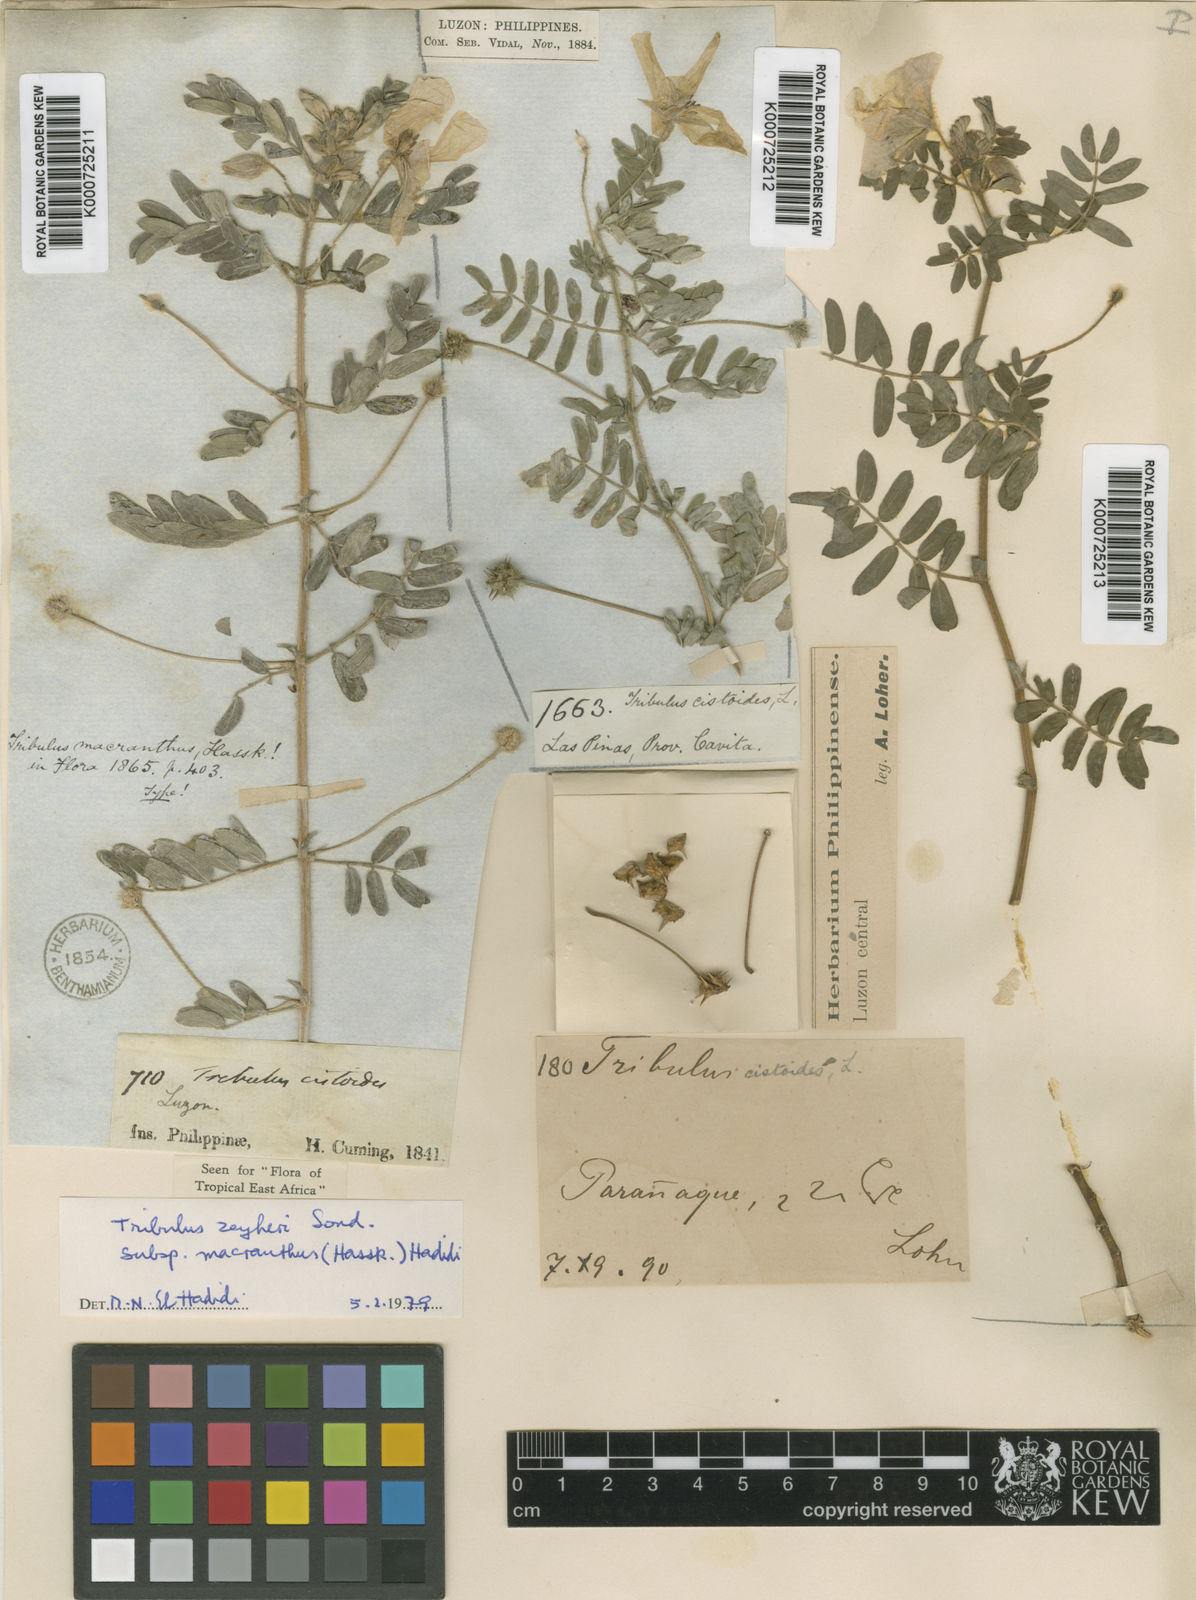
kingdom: Plantae
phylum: Tracheophyta
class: Magnoliopsida
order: Zygophyllales
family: Zygophyllaceae
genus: Tribulus
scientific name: Tribulus cistoides
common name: Jamaican feverplant
